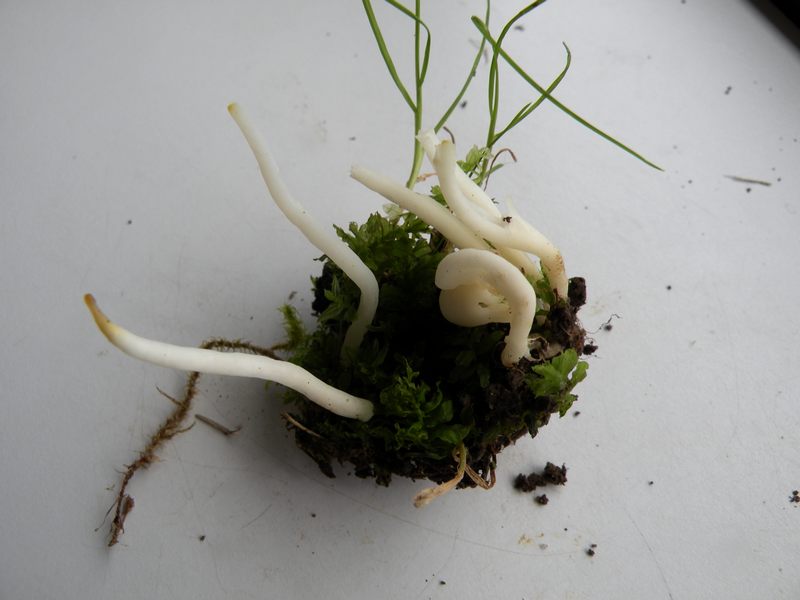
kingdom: Fungi
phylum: Basidiomycota
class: Agaricomycetes
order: Agaricales
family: Clavariaceae
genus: Clavaria
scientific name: Clavaria falcata
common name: hvid køllesvamp
